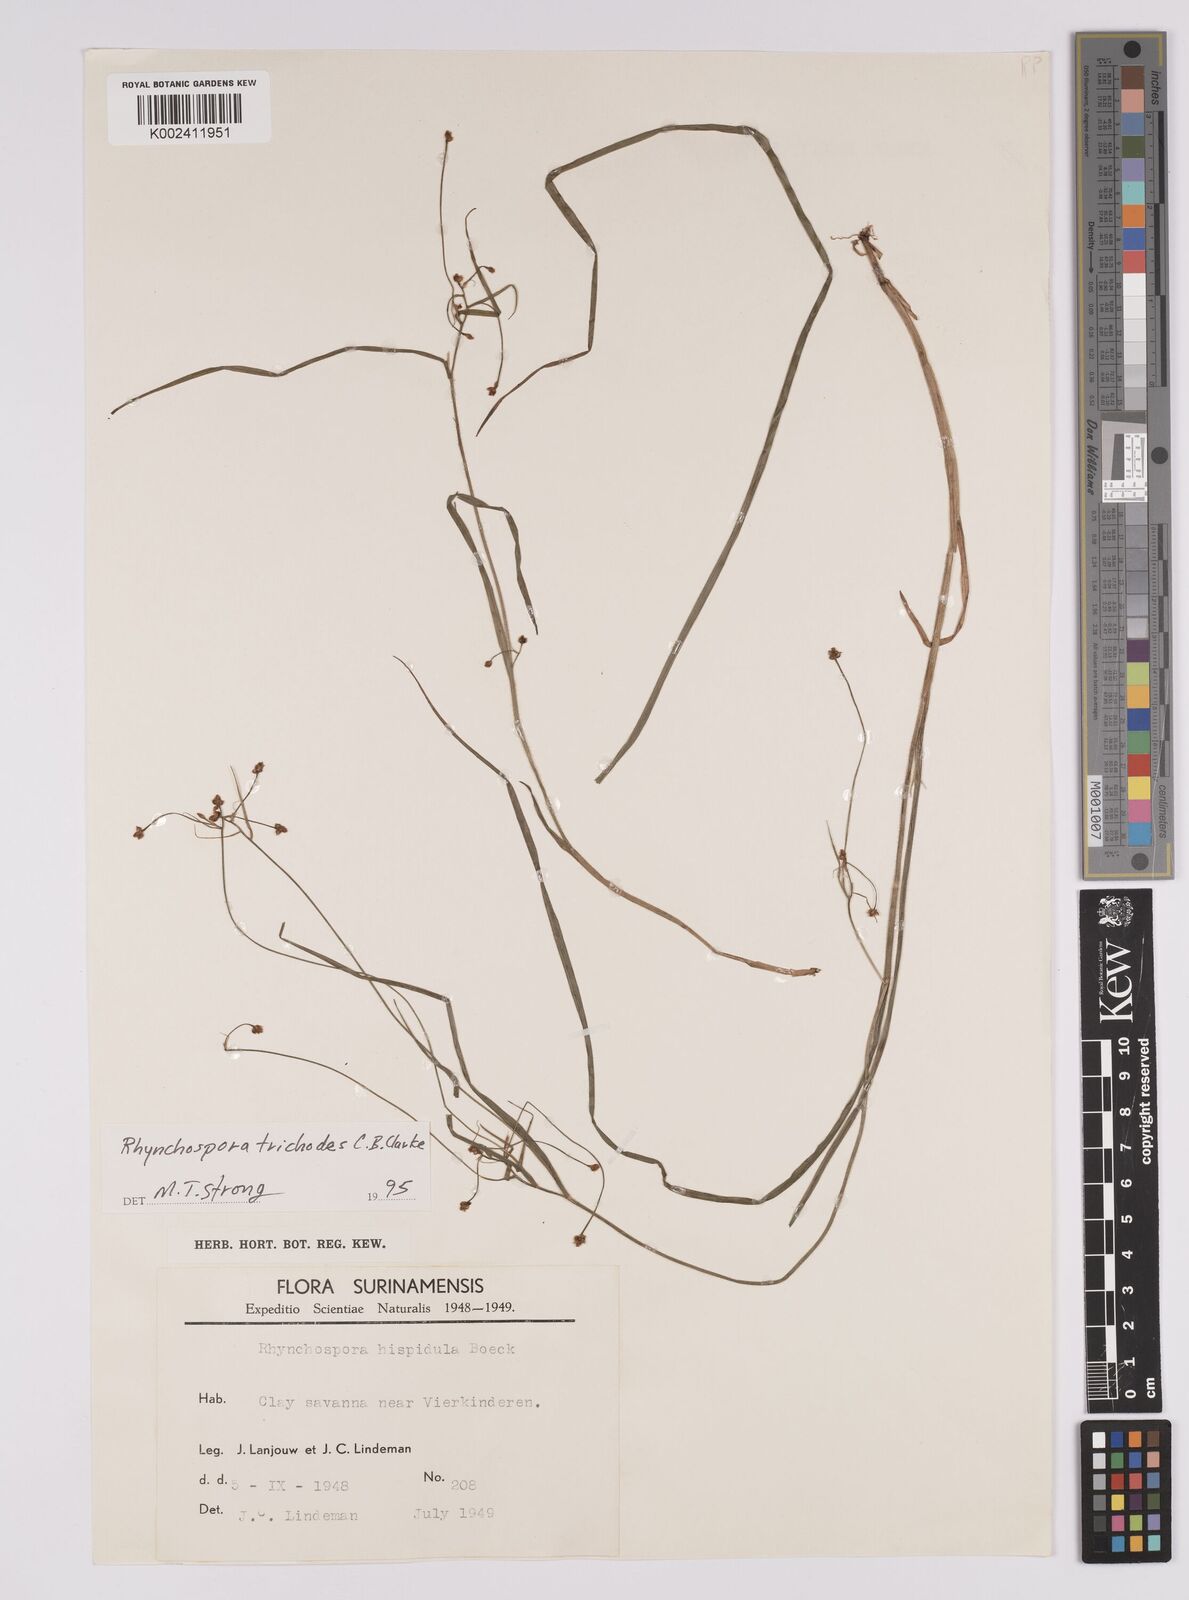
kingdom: Plantae
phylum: Tracheophyta
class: Liliopsida
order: Poales
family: Cyperaceae
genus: Rhynchospora
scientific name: Rhynchospora divaricata
